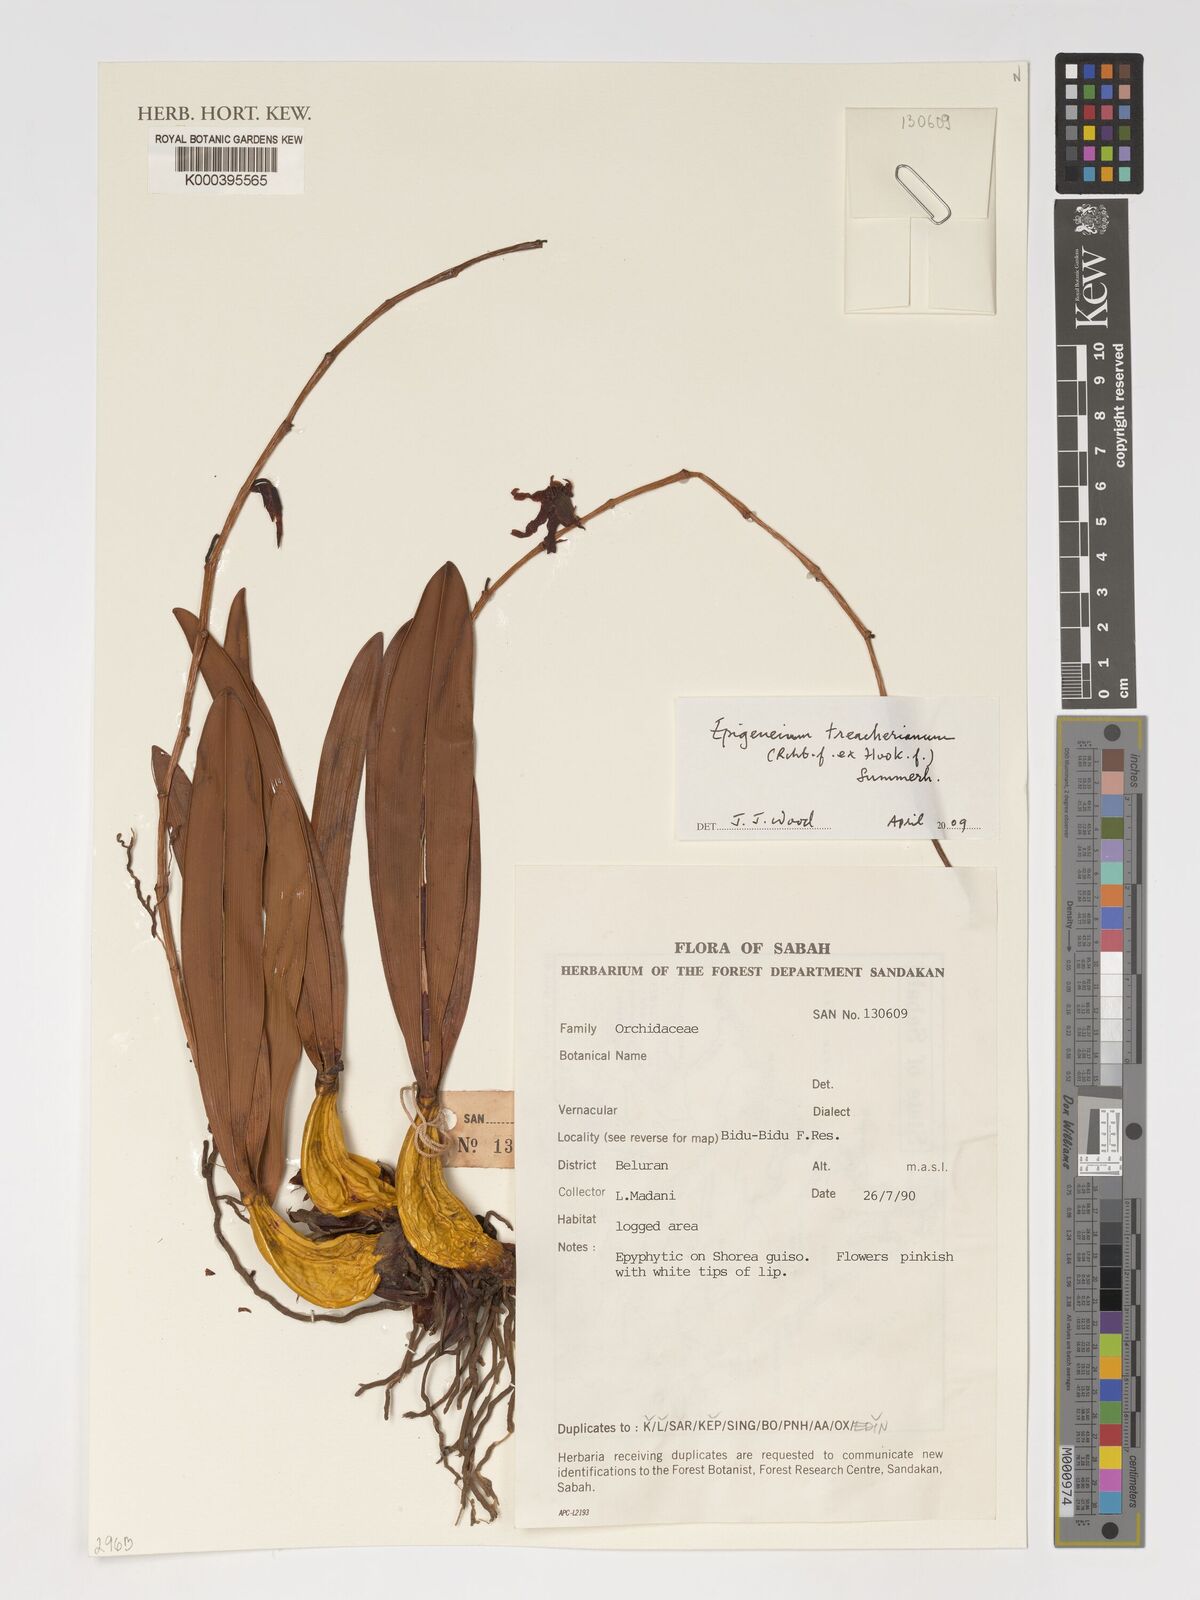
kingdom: Plantae
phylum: Tracheophyta
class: Liliopsida
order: Asparagales
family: Orchidaceae
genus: Dendrobium
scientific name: Dendrobium treacherianum
